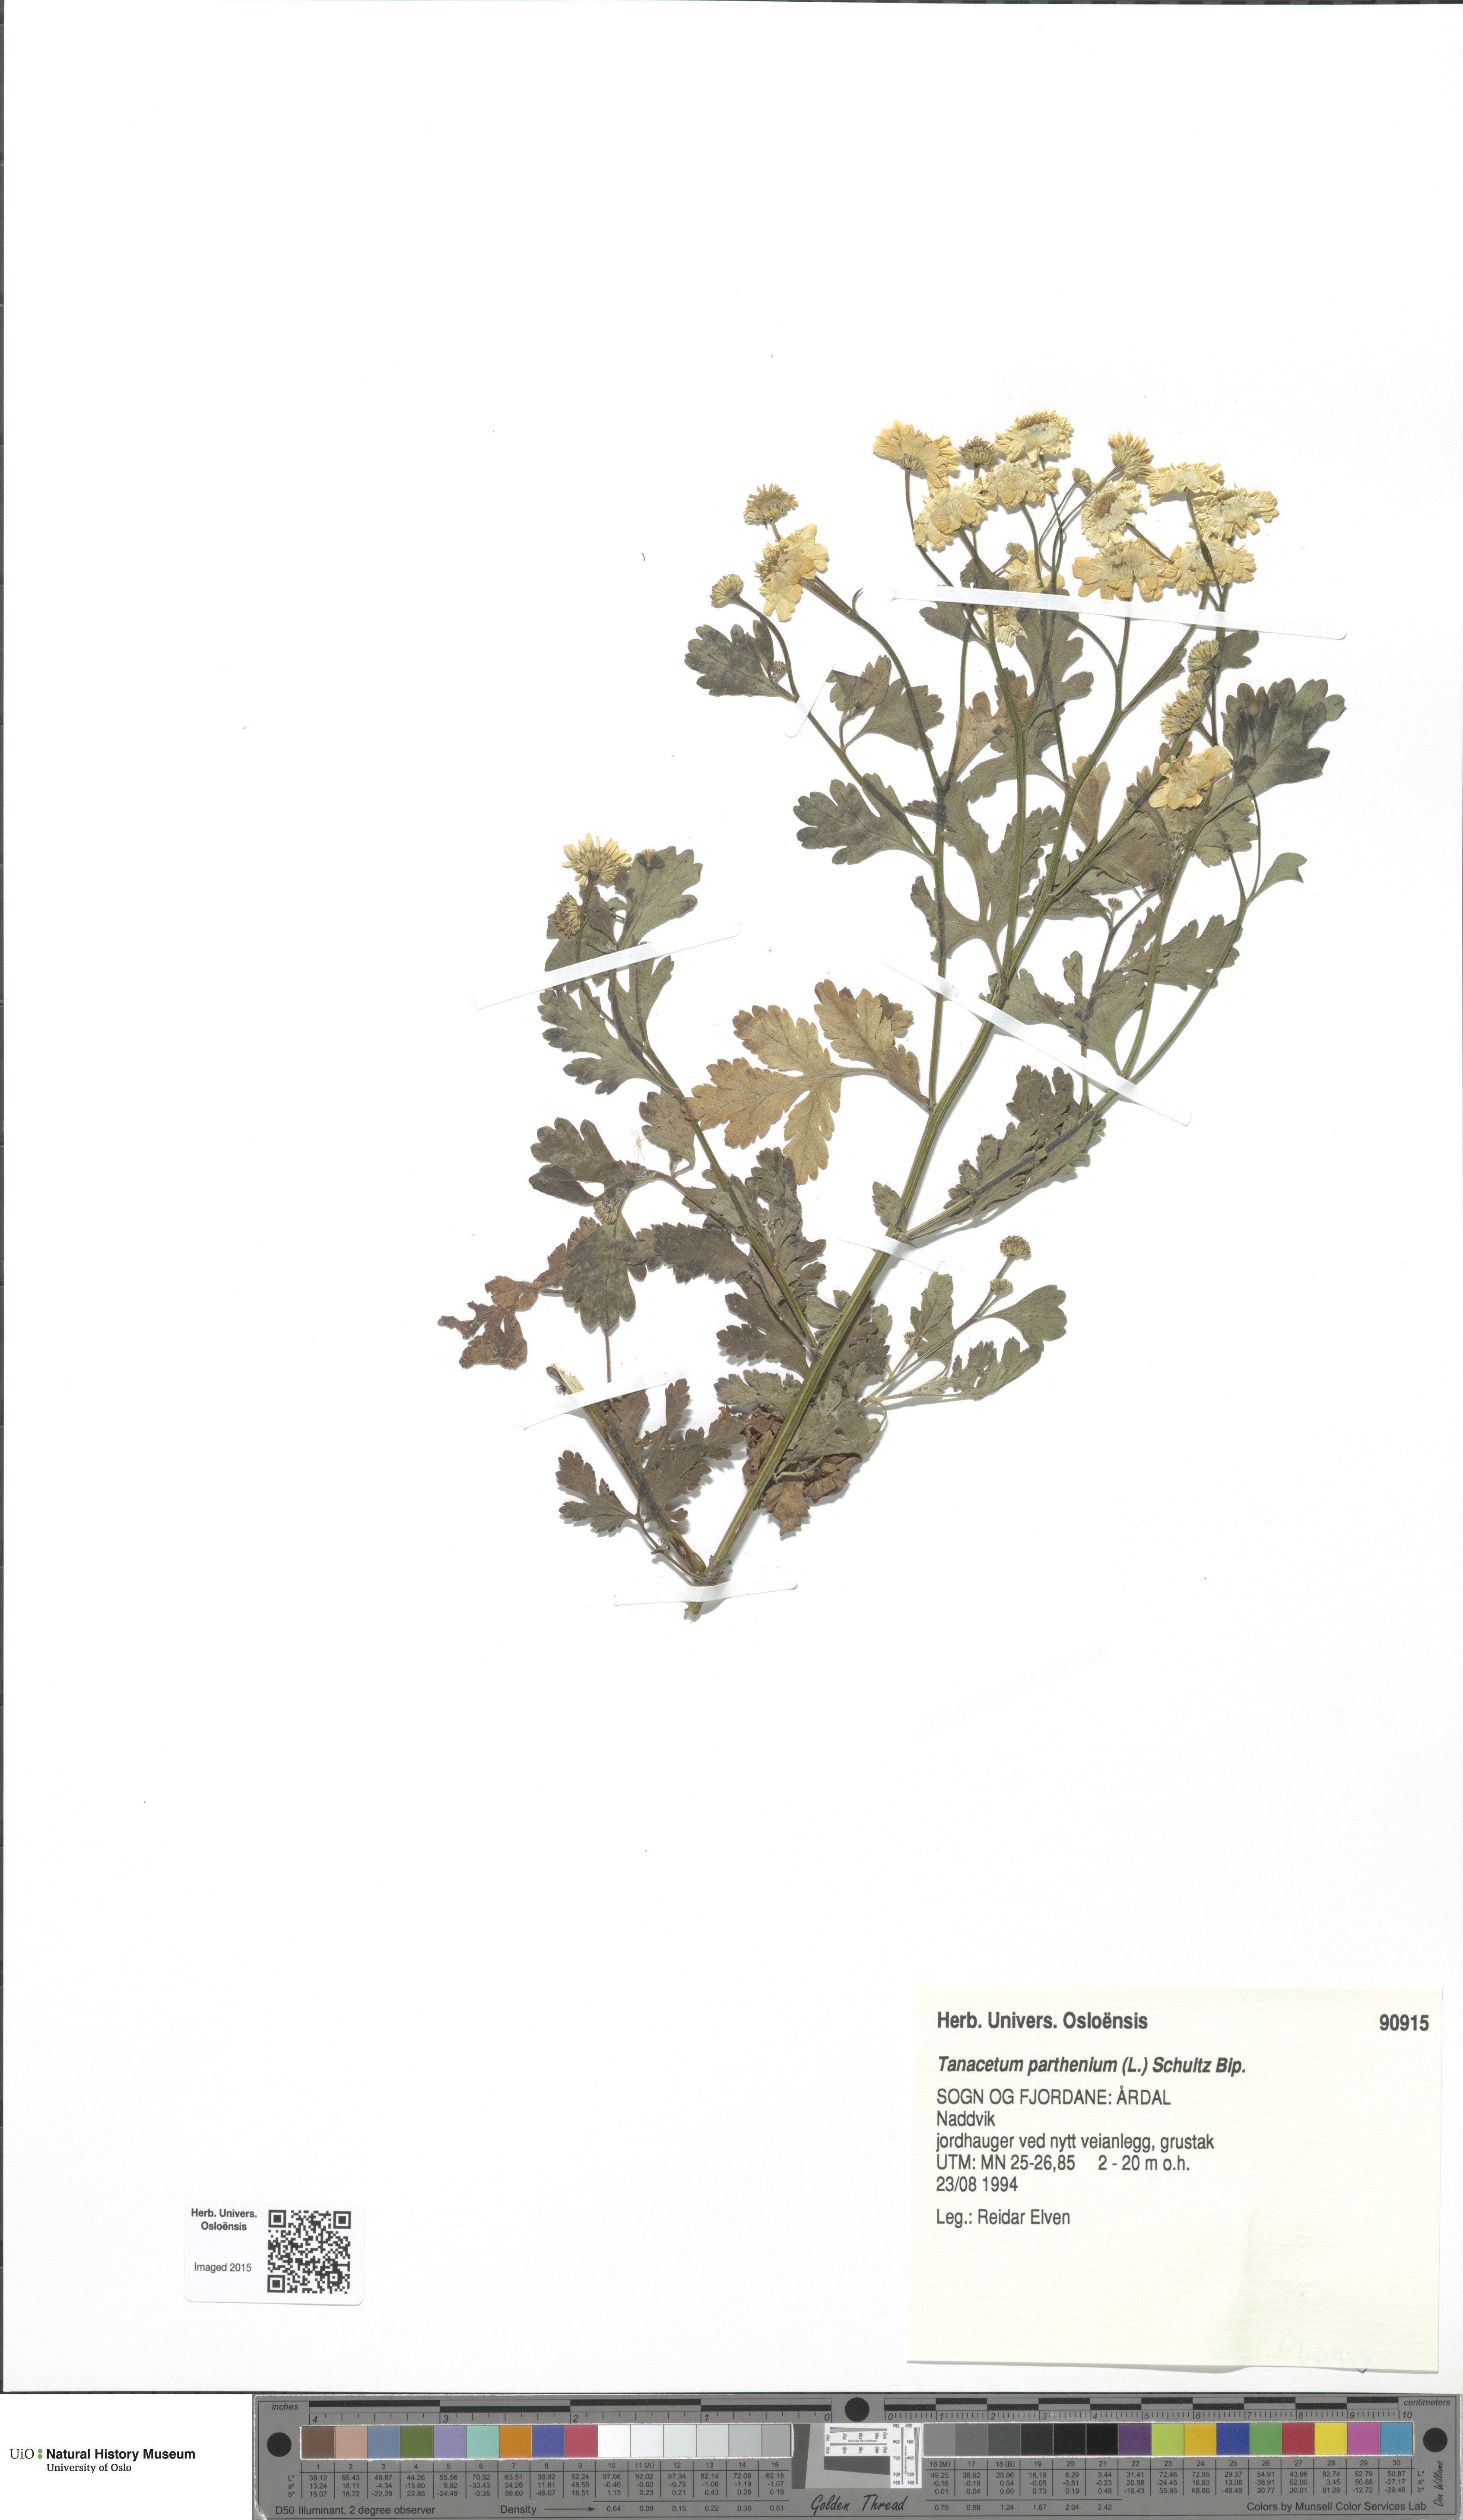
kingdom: Plantae
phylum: Tracheophyta
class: Magnoliopsida
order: Asterales
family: Asteraceae
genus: Tanacetum
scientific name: Tanacetum parthenium
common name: Feverfew
